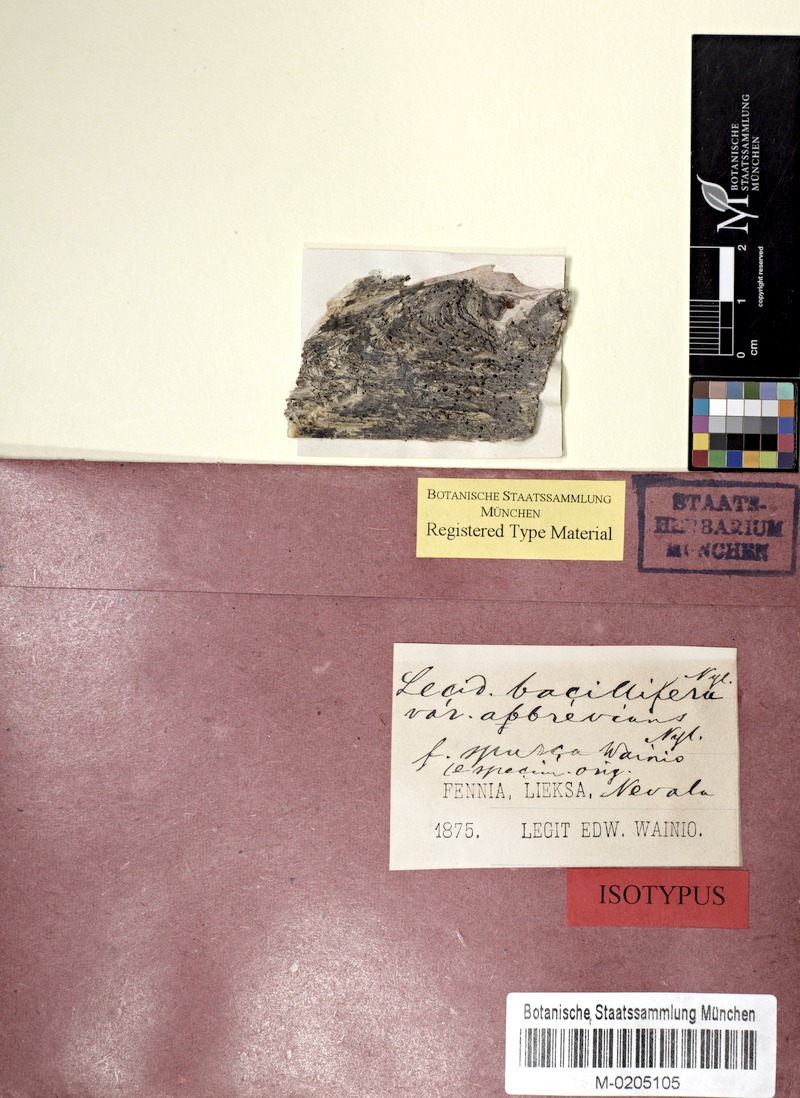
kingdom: Fungi
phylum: Ascomycota
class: Lecanoromycetes
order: Lecanorales
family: Byssolomataceae
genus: Scutula
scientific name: Scutula igniarii
